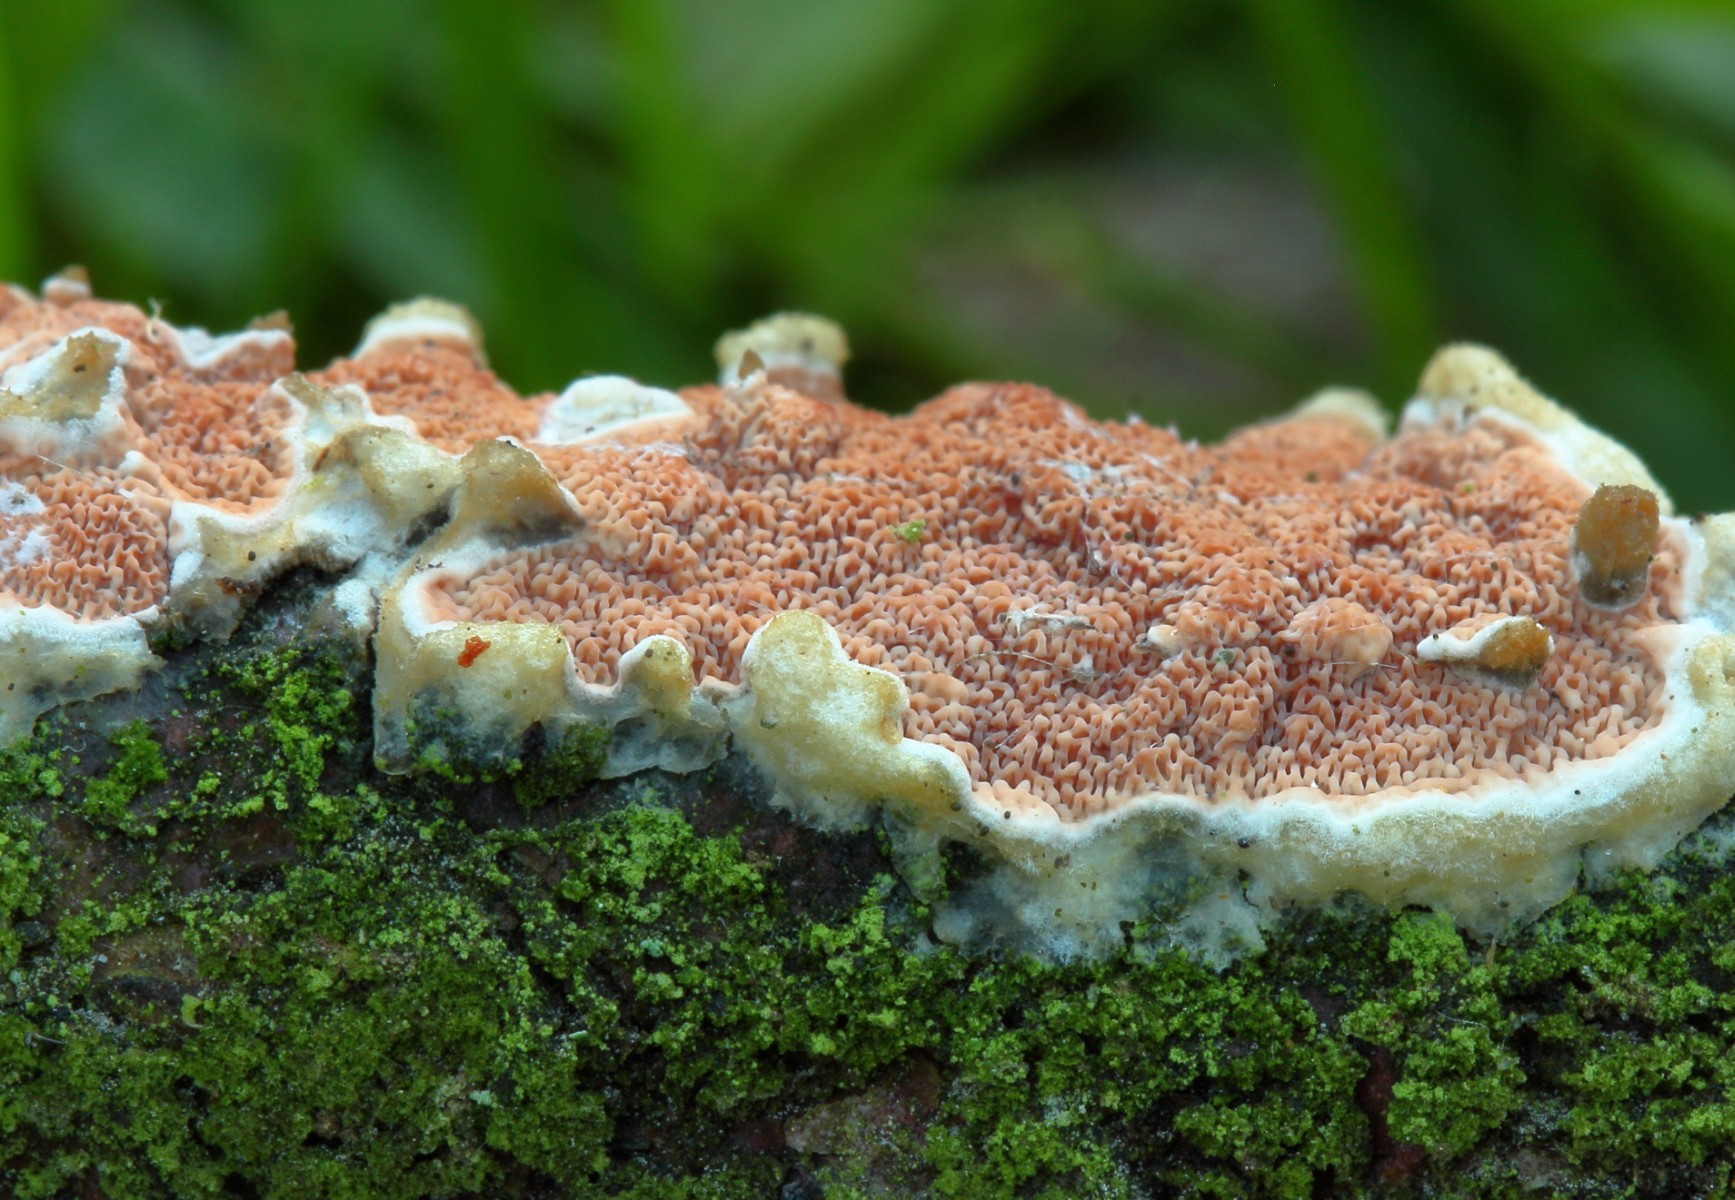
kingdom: Fungi
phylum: Basidiomycota
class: Agaricomycetes
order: Polyporales
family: Irpicaceae
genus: Meruliopsis
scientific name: Meruliopsis taxicola
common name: purpurbrun foldporesvamp
